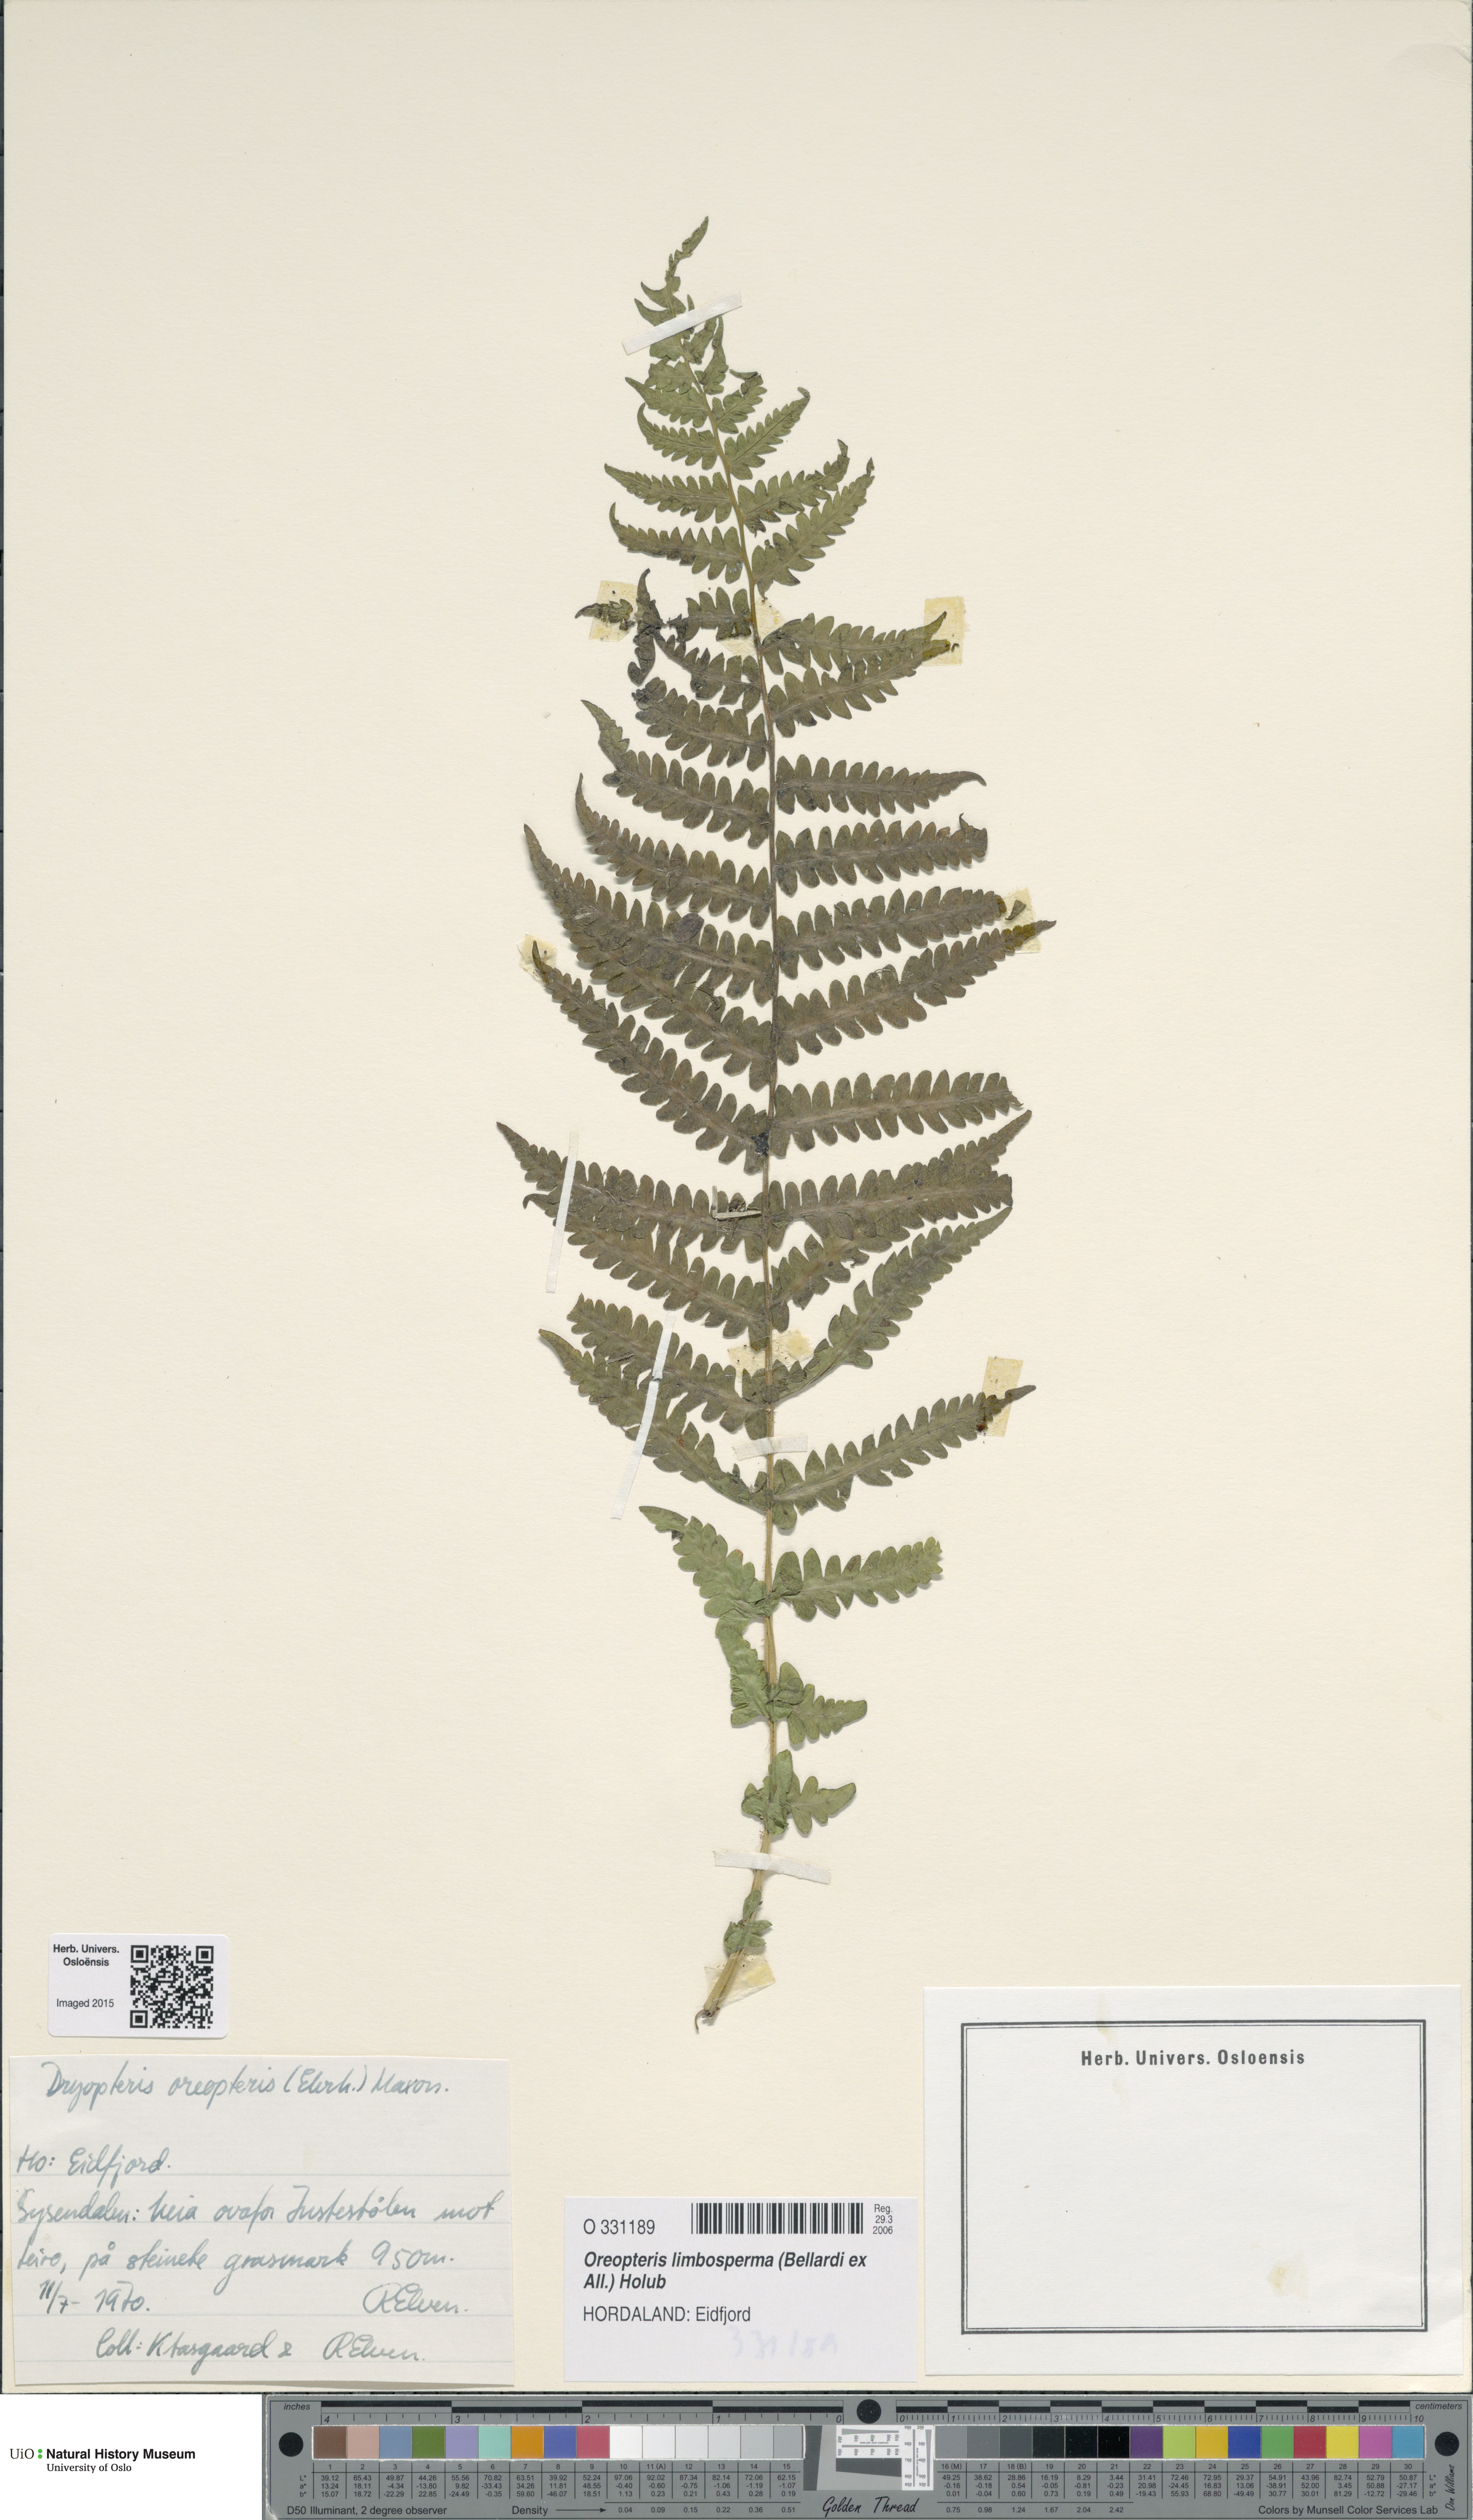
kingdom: Plantae
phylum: Tracheophyta
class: Polypodiopsida
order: Polypodiales
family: Thelypteridaceae
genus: Oreopteris
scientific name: Oreopteris limbosperma
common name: Lemon-scented fern
